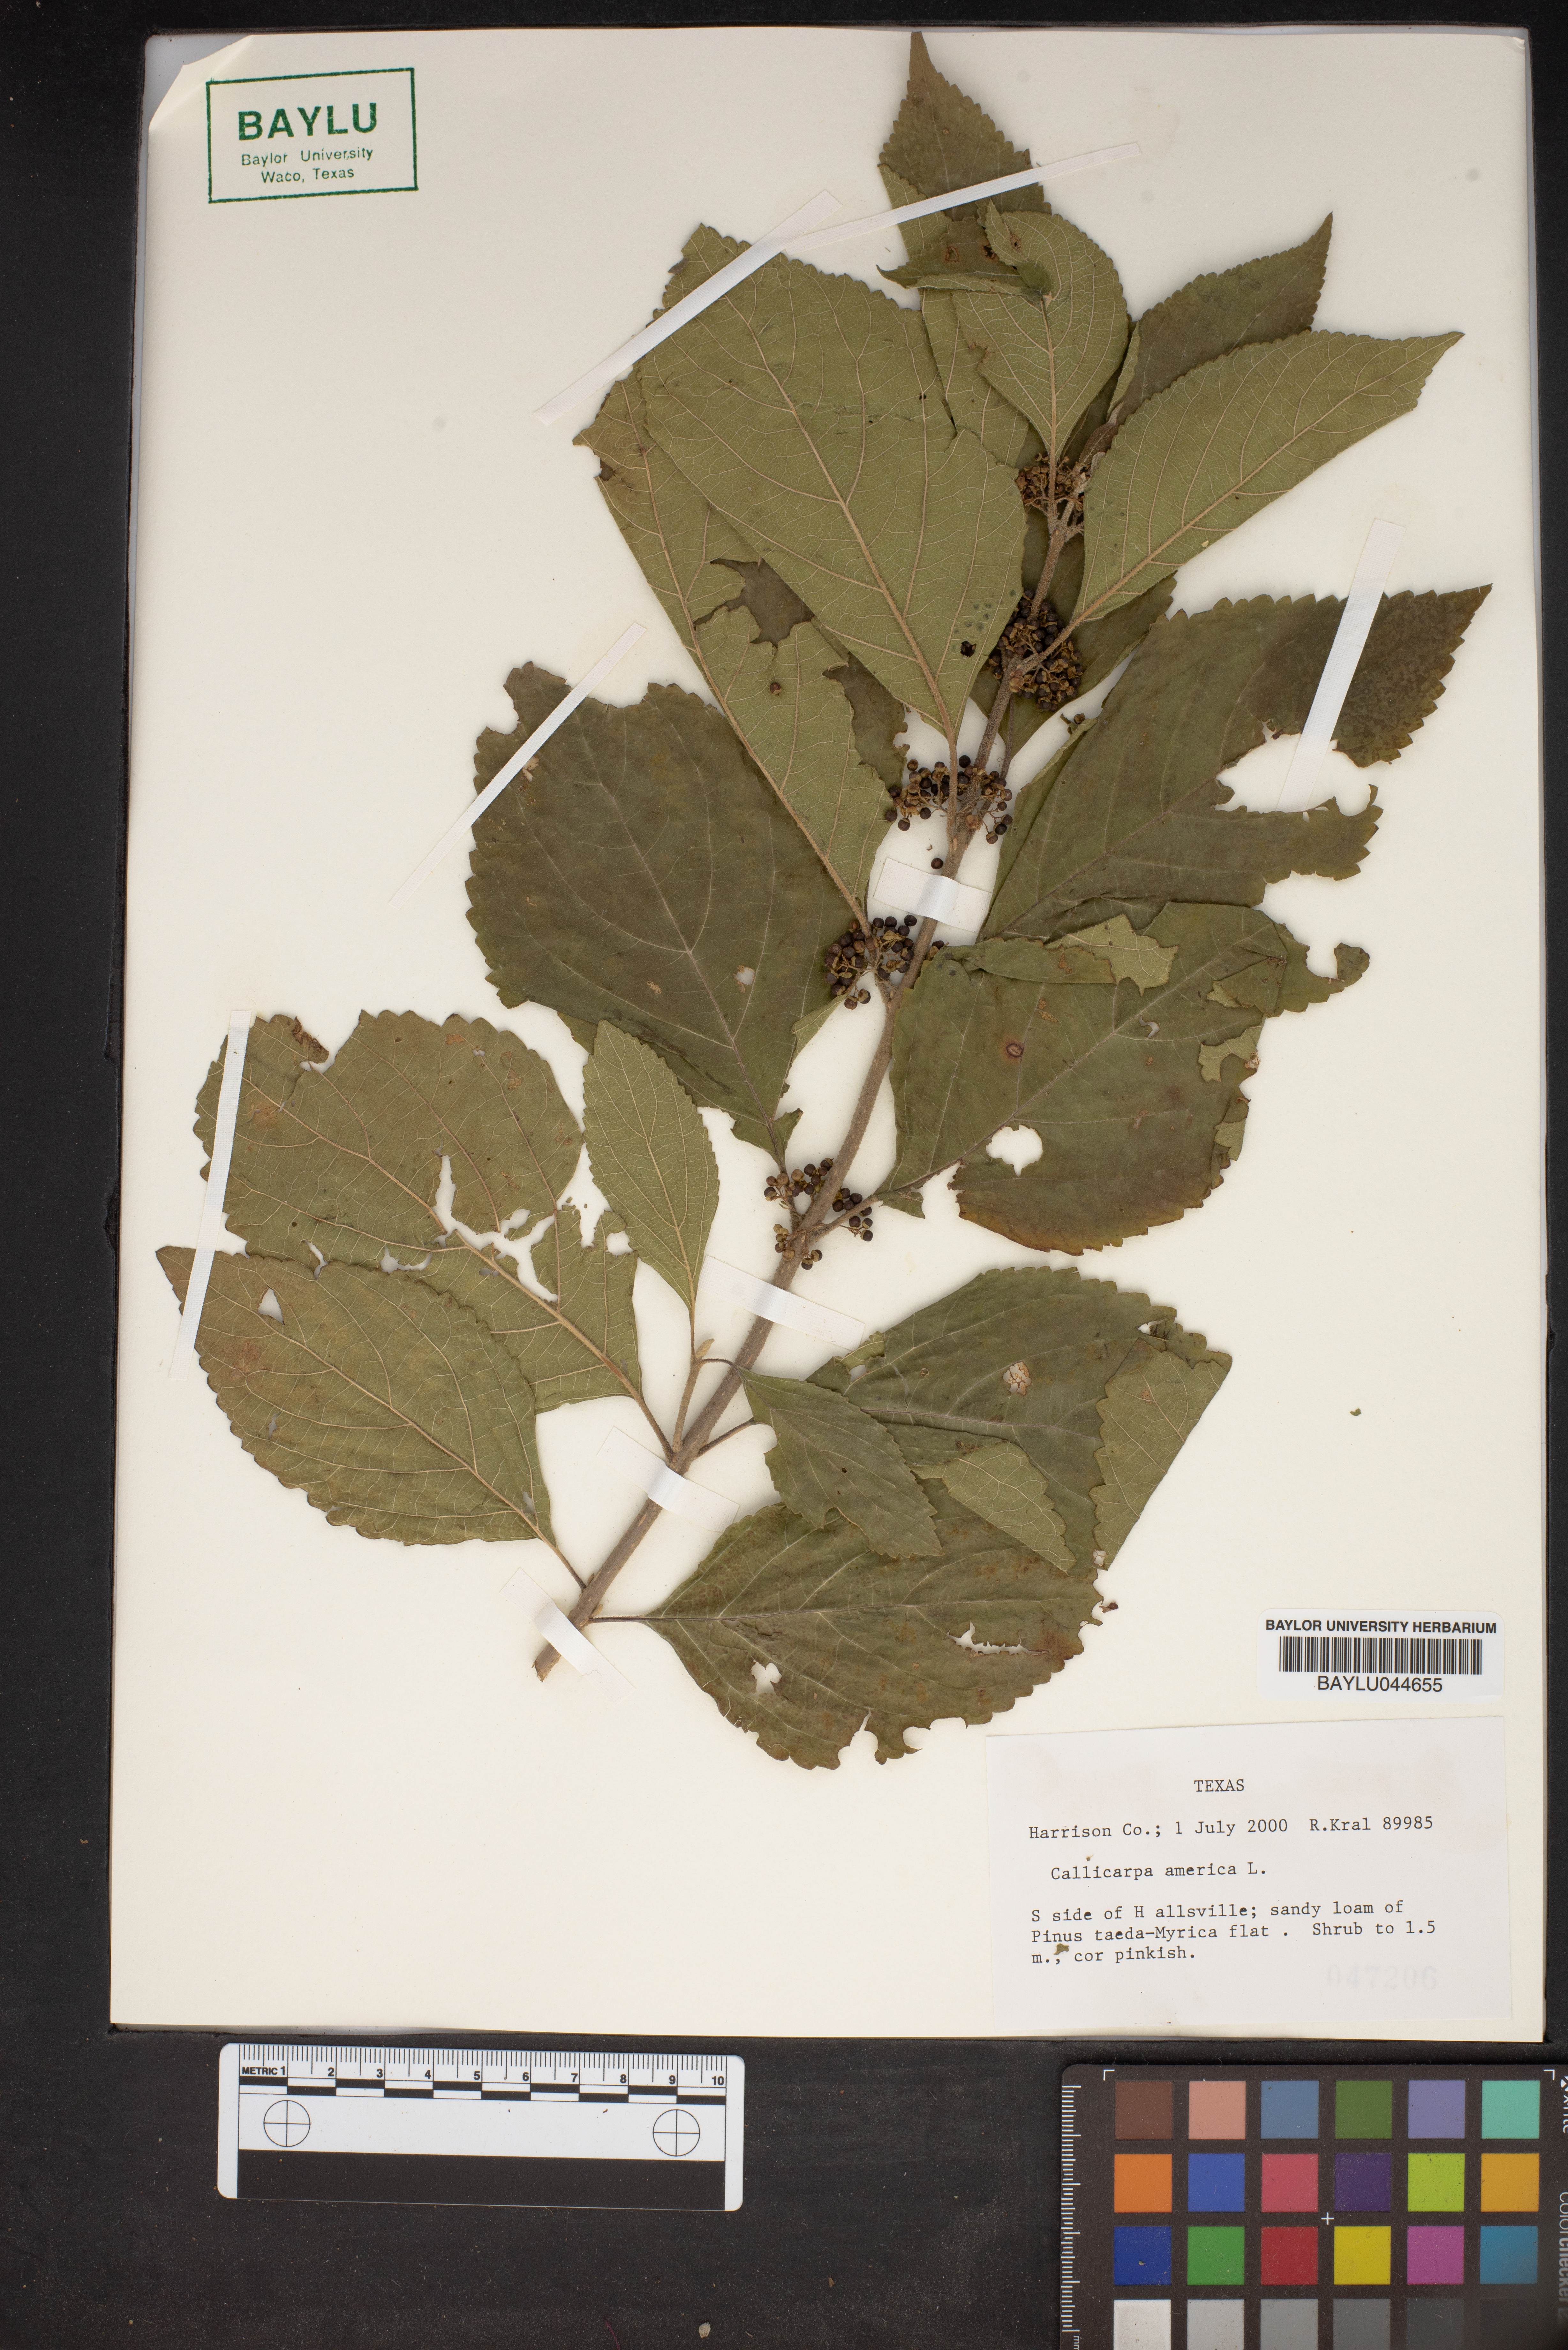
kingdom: Plantae
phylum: Tracheophyta
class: Magnoliopsida
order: Lamiales
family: Lamiaceae
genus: Callicarpa
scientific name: Callicarpa americana
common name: American beautyberry
